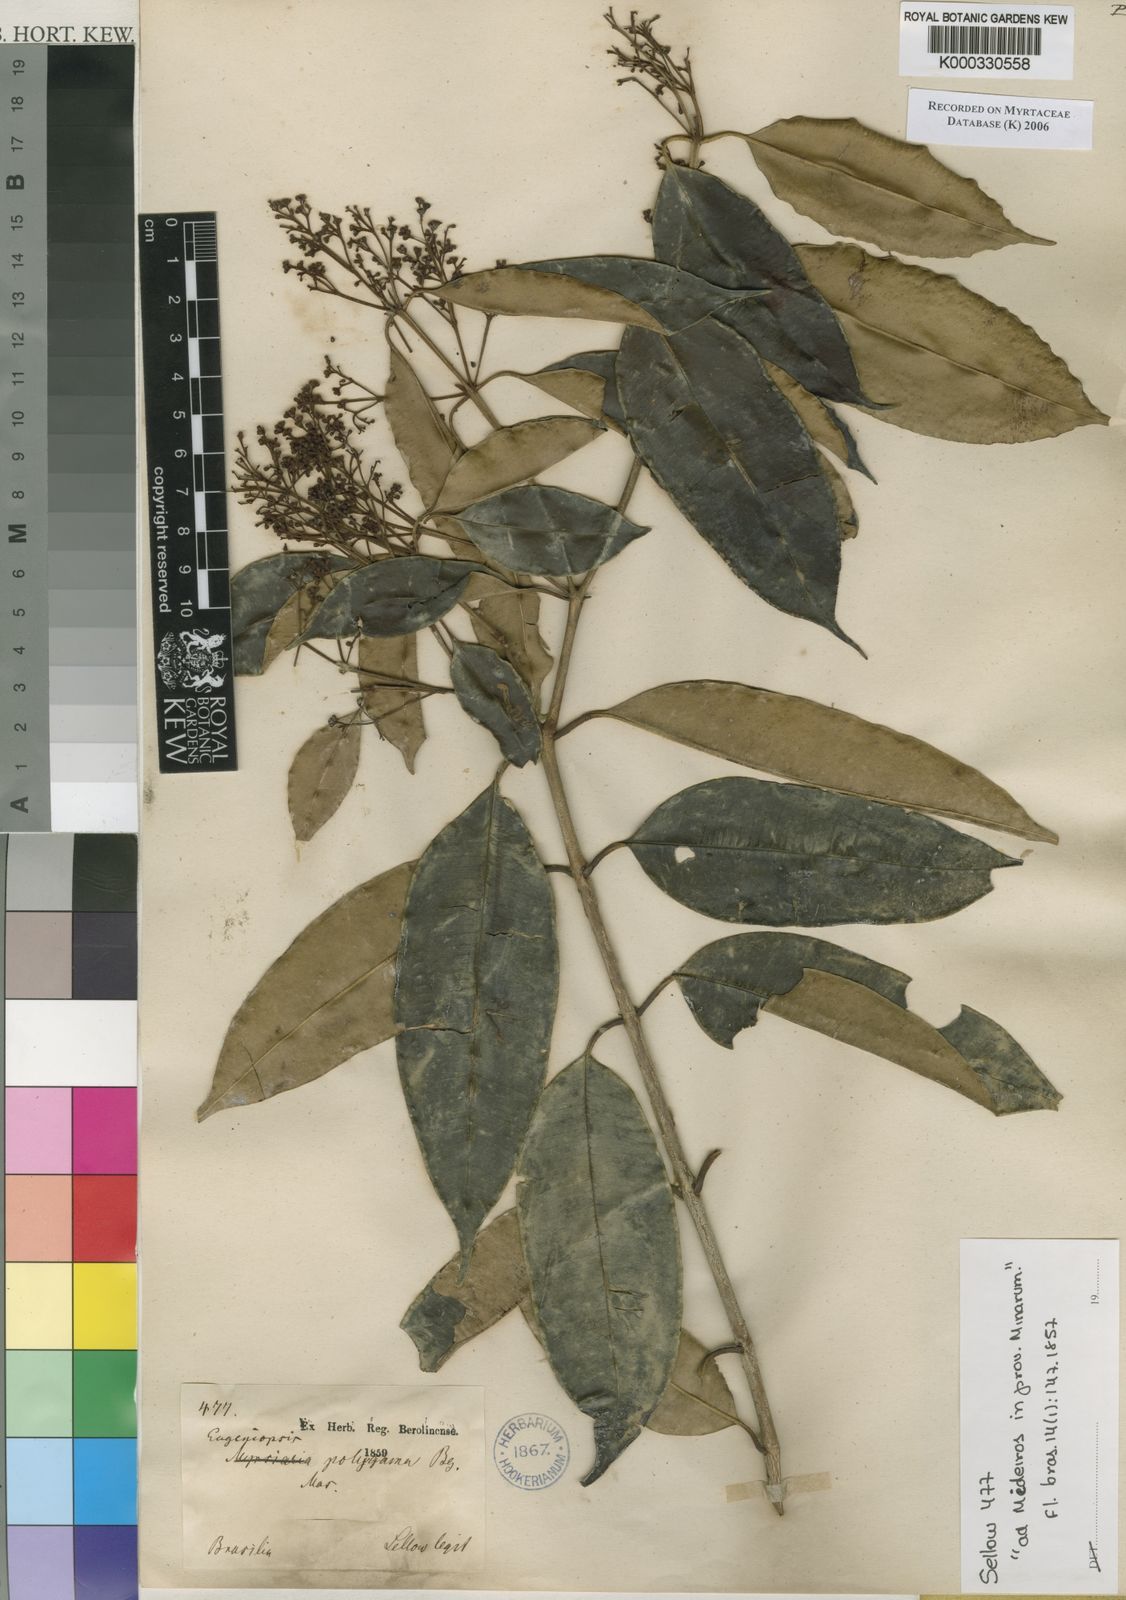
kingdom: Plantae
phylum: Tracheophyta
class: Magnoliopsida
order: Myrtales
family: Myrtaceae
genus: Myrcia
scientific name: Myrcia polygama
